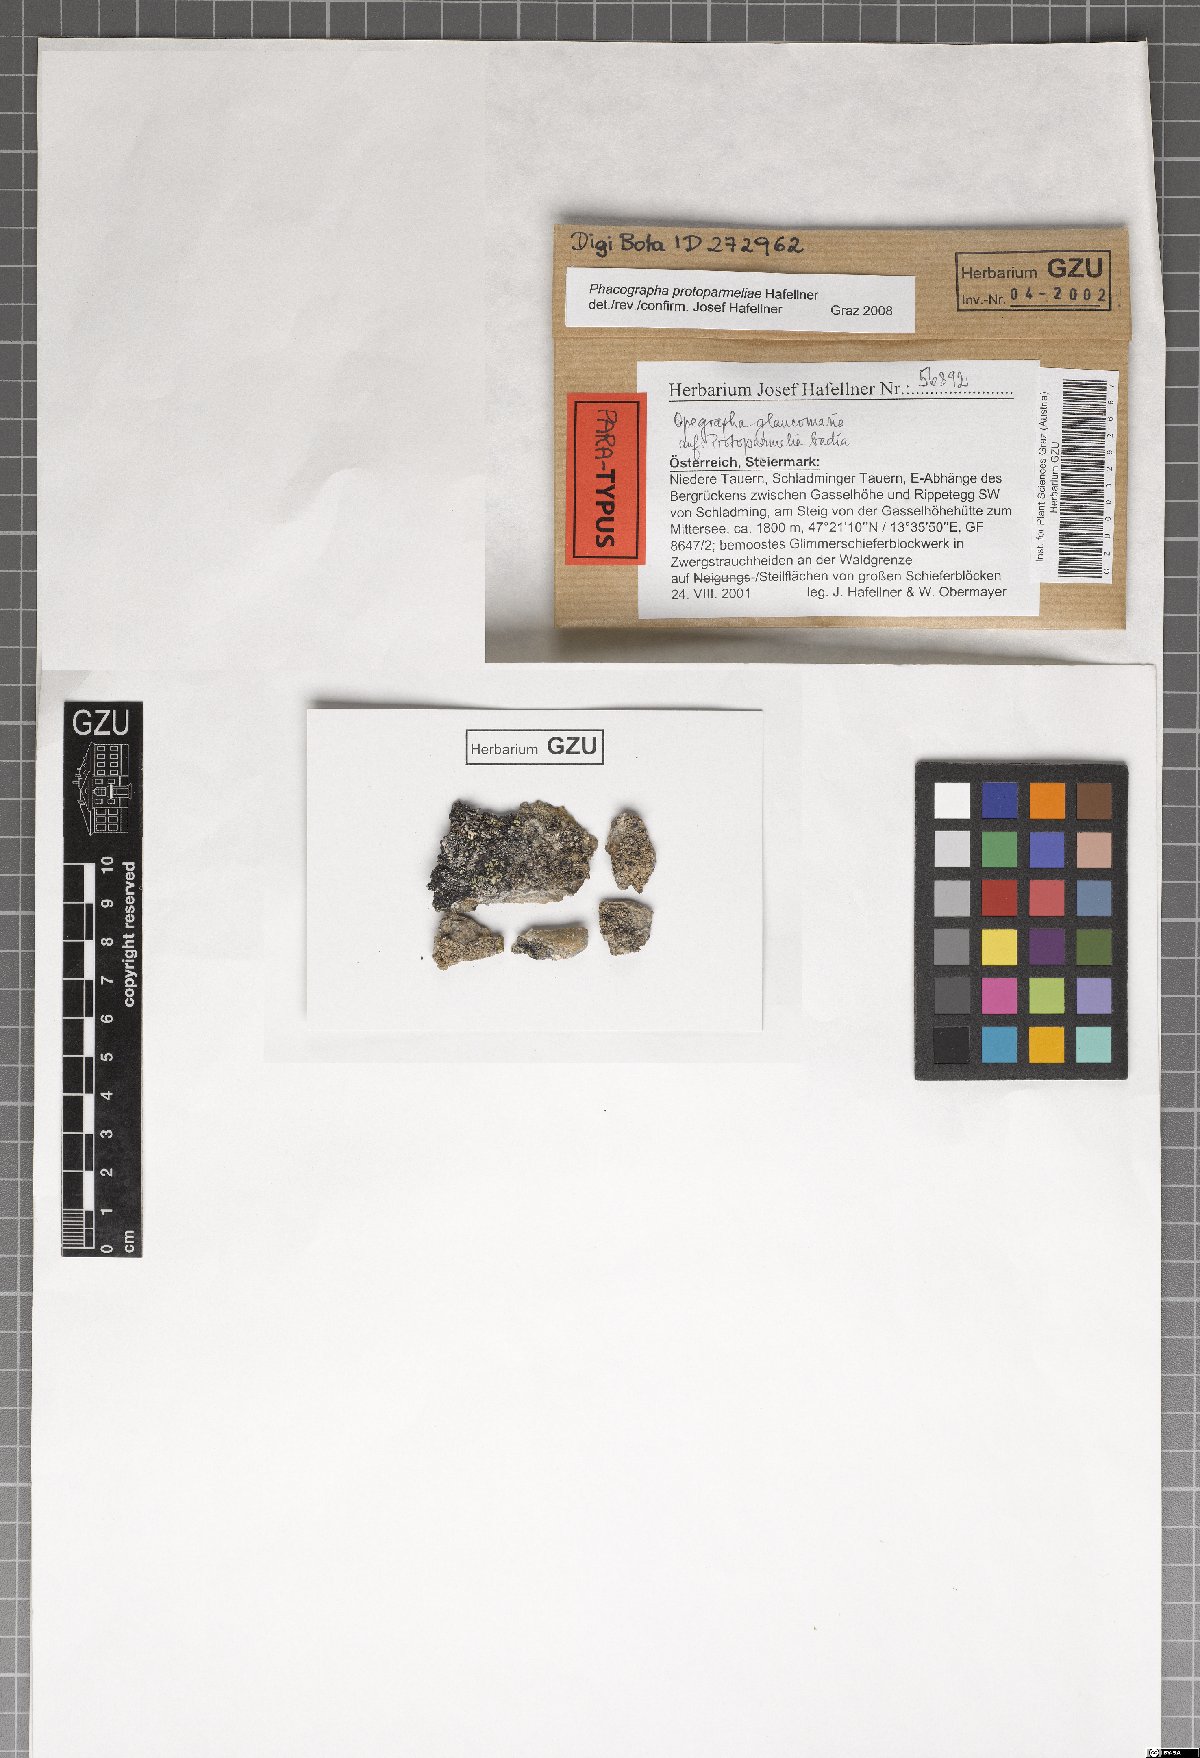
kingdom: Fungi
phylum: Ascomycota
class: Arthoniomycetes
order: Arthoniales
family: Roccellaceae
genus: Phacographa
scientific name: Phacographa protoparmeliae
